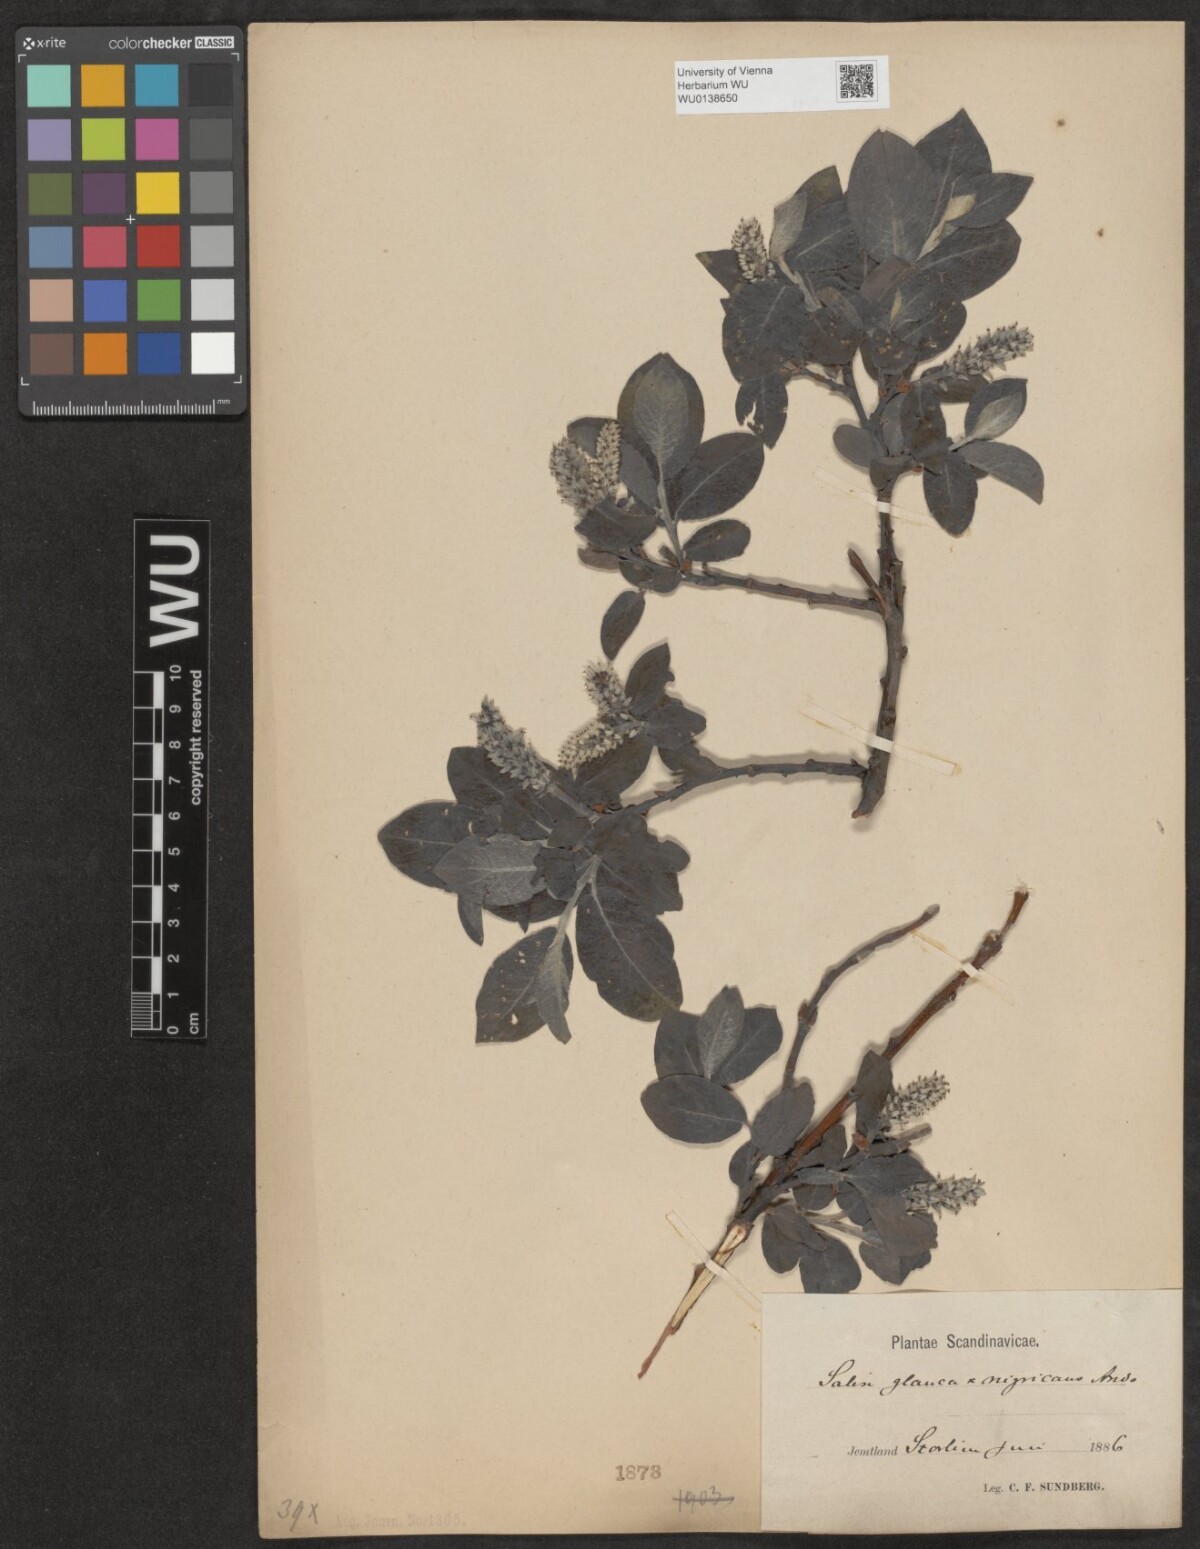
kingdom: Plantae
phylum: Tracheophyta
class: Magnoliopsida
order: Malpighiales
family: Salicaceae
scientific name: Salicaceae
